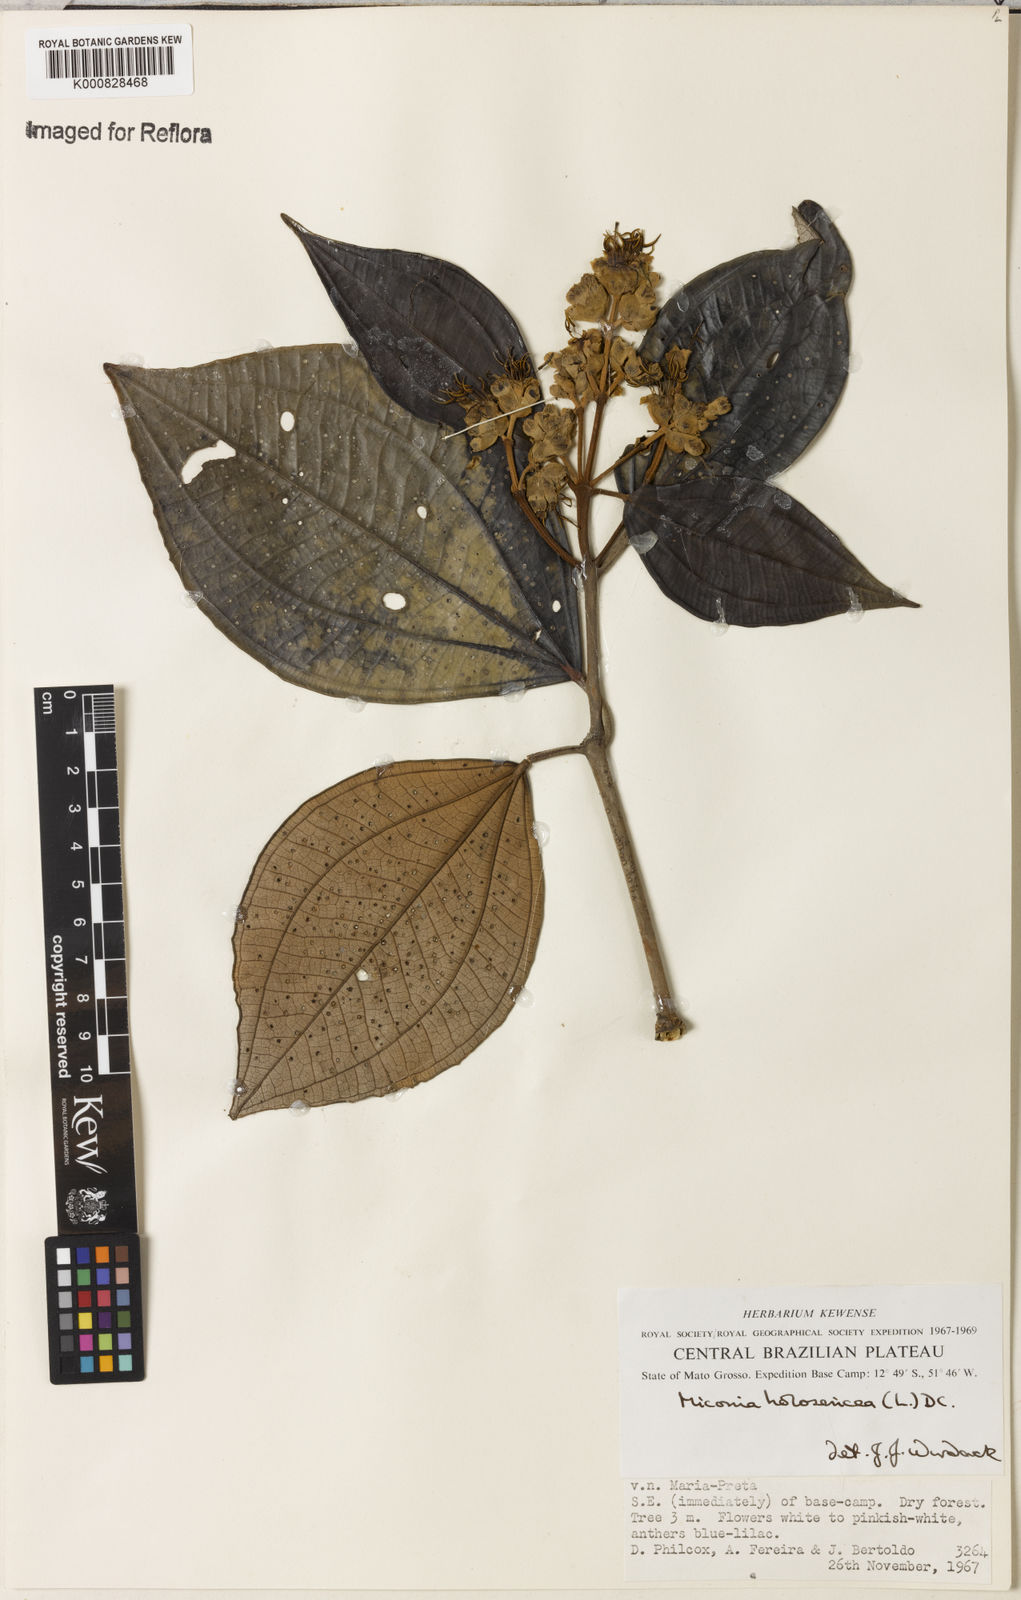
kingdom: Plantae
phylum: Tracheophyta
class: Magnoliopsida
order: Myrtales
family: Melastomataceae
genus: Miconia
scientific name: Miconia holosericea
